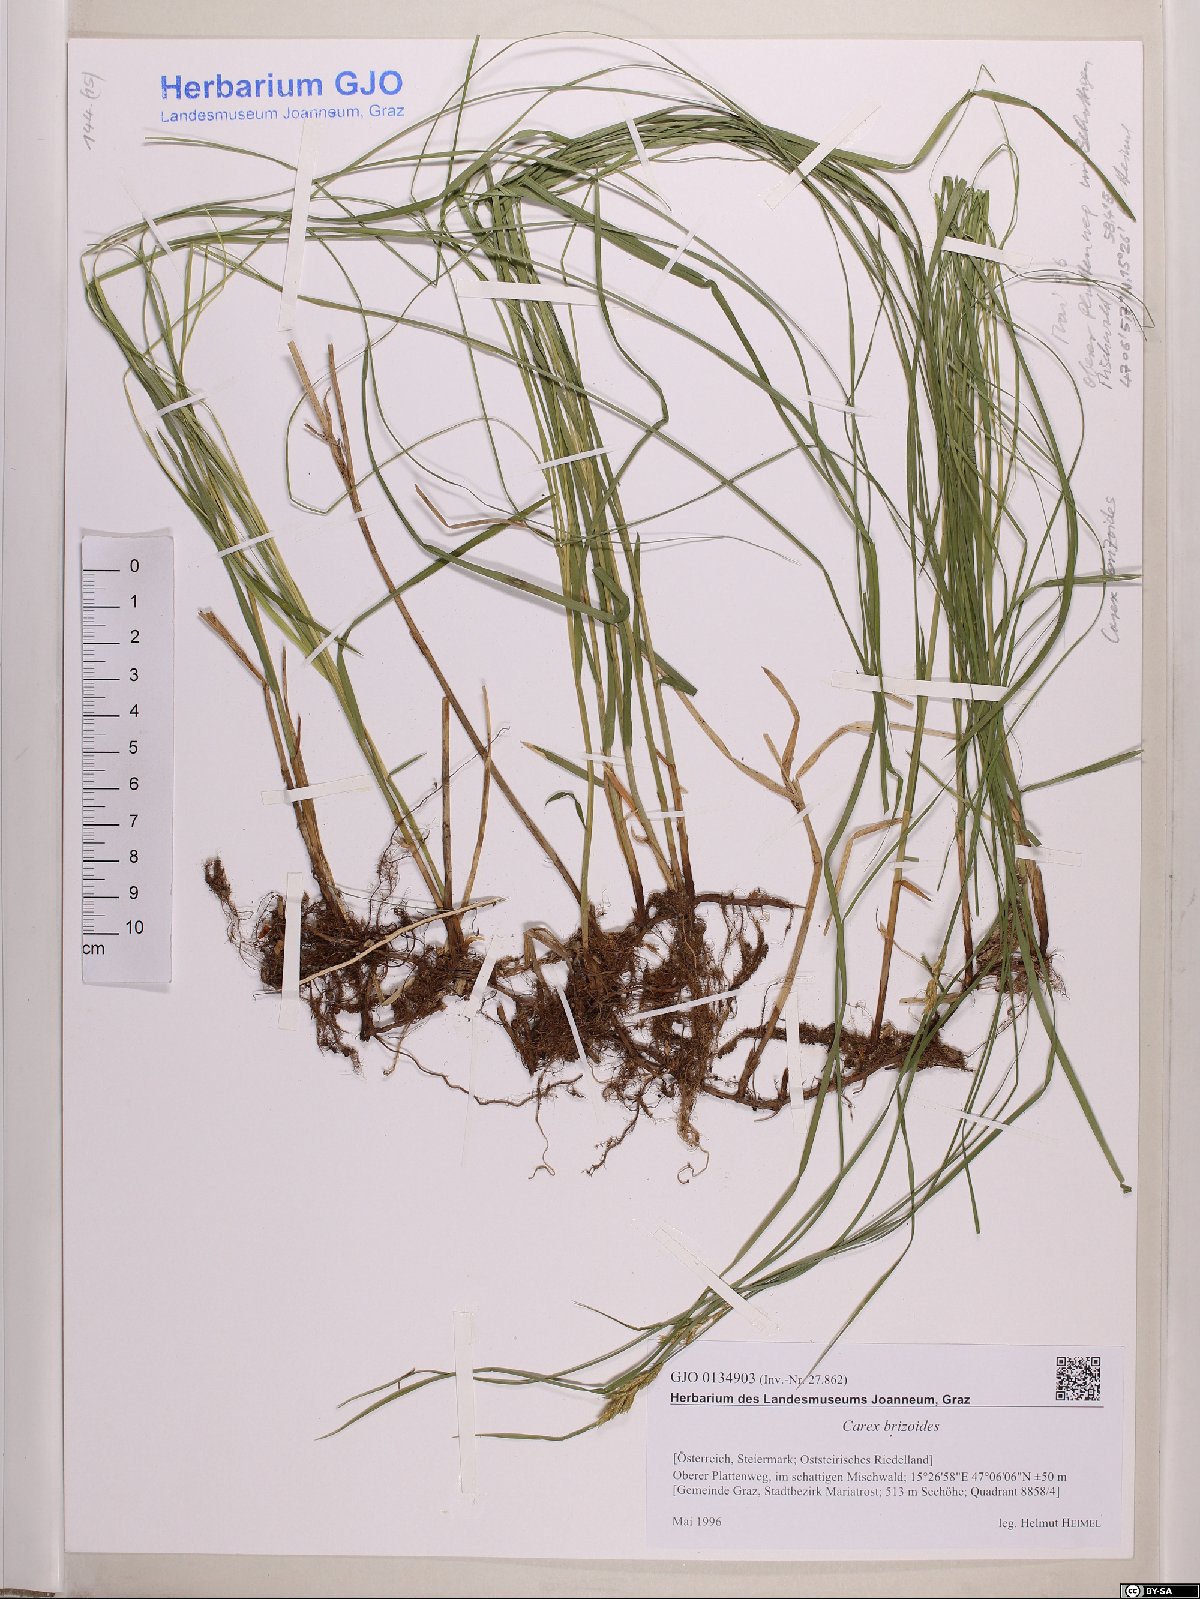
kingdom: Plantae
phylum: Tracheophyta
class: Liliopsida
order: Poales
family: Cyperaceae
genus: Carex
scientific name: Carex brizoides
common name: Quaking-grass sedge
